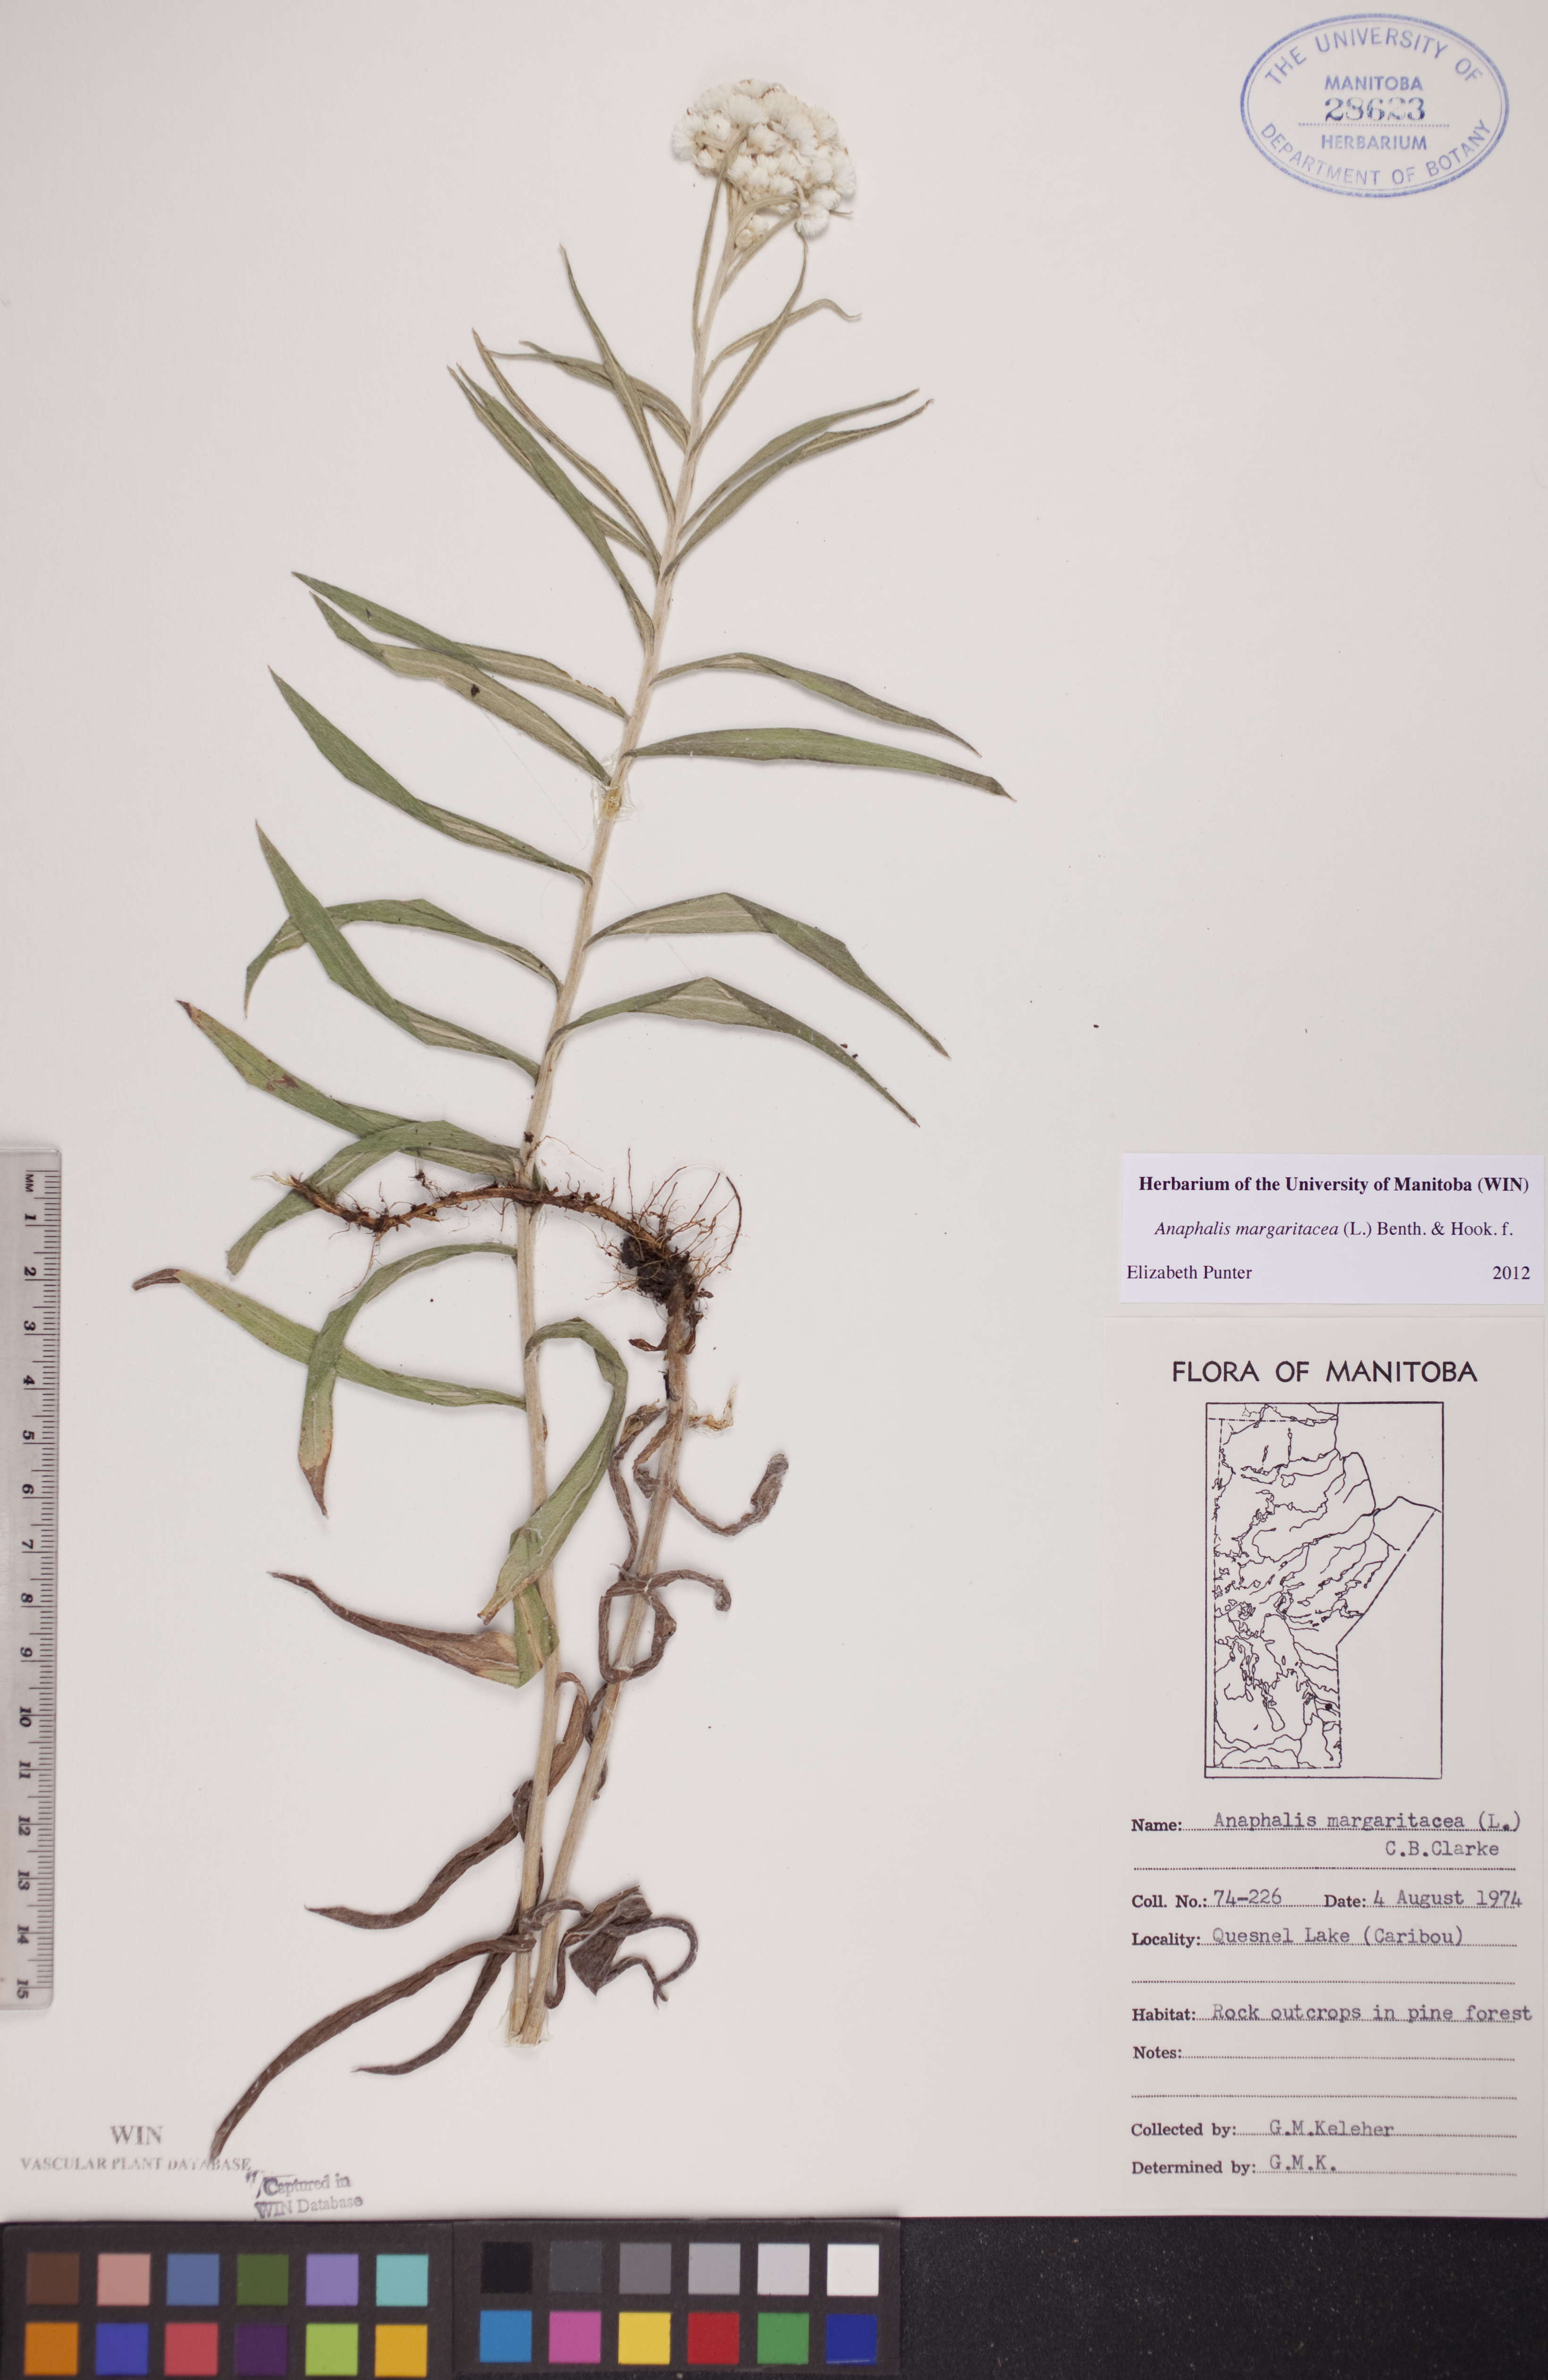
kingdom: Plantae
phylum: Tracheophyta
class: Magnoliopsida
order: Asterales
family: Asteraceae
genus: Anaphalis
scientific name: Anaphalis margaritacea
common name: Pearly everlasting
